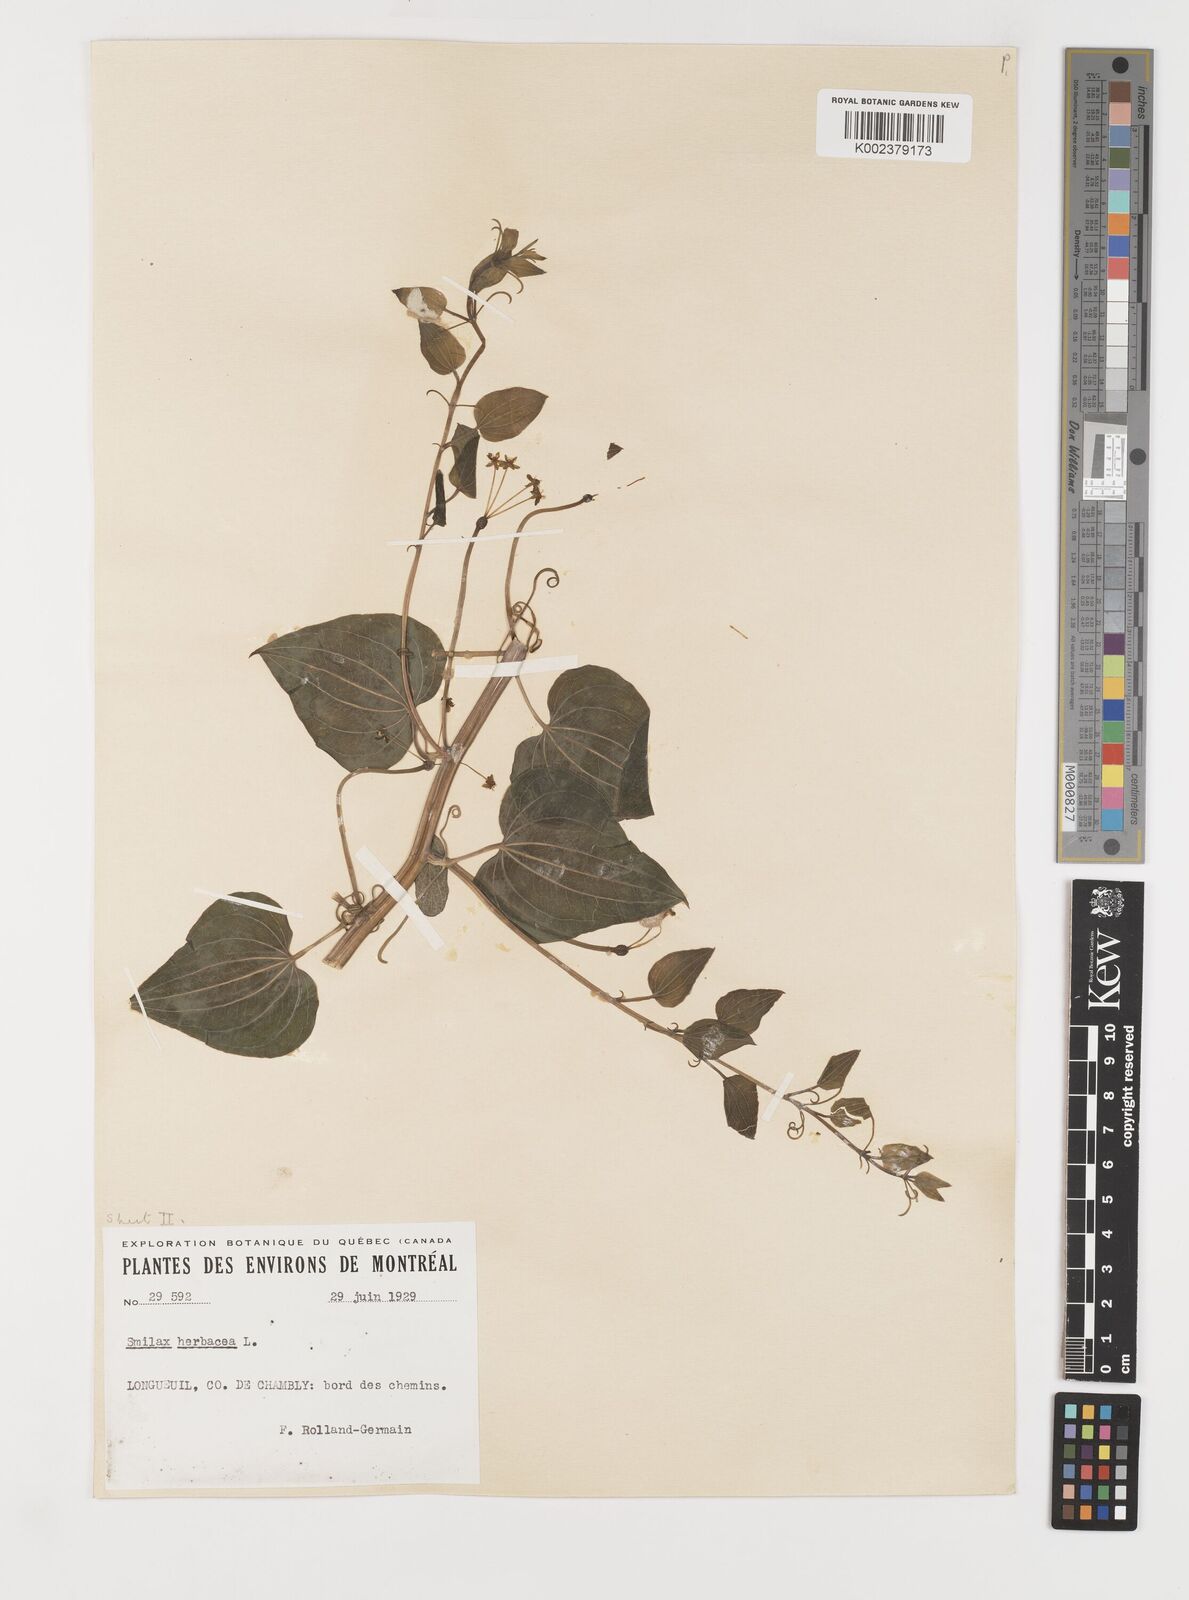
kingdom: Plantae
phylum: Tracheophyta
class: Liliopsida
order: Liliales
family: Smilacaceae
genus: Smilax
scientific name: Smilax herbacea
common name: Jacob's-ladder
